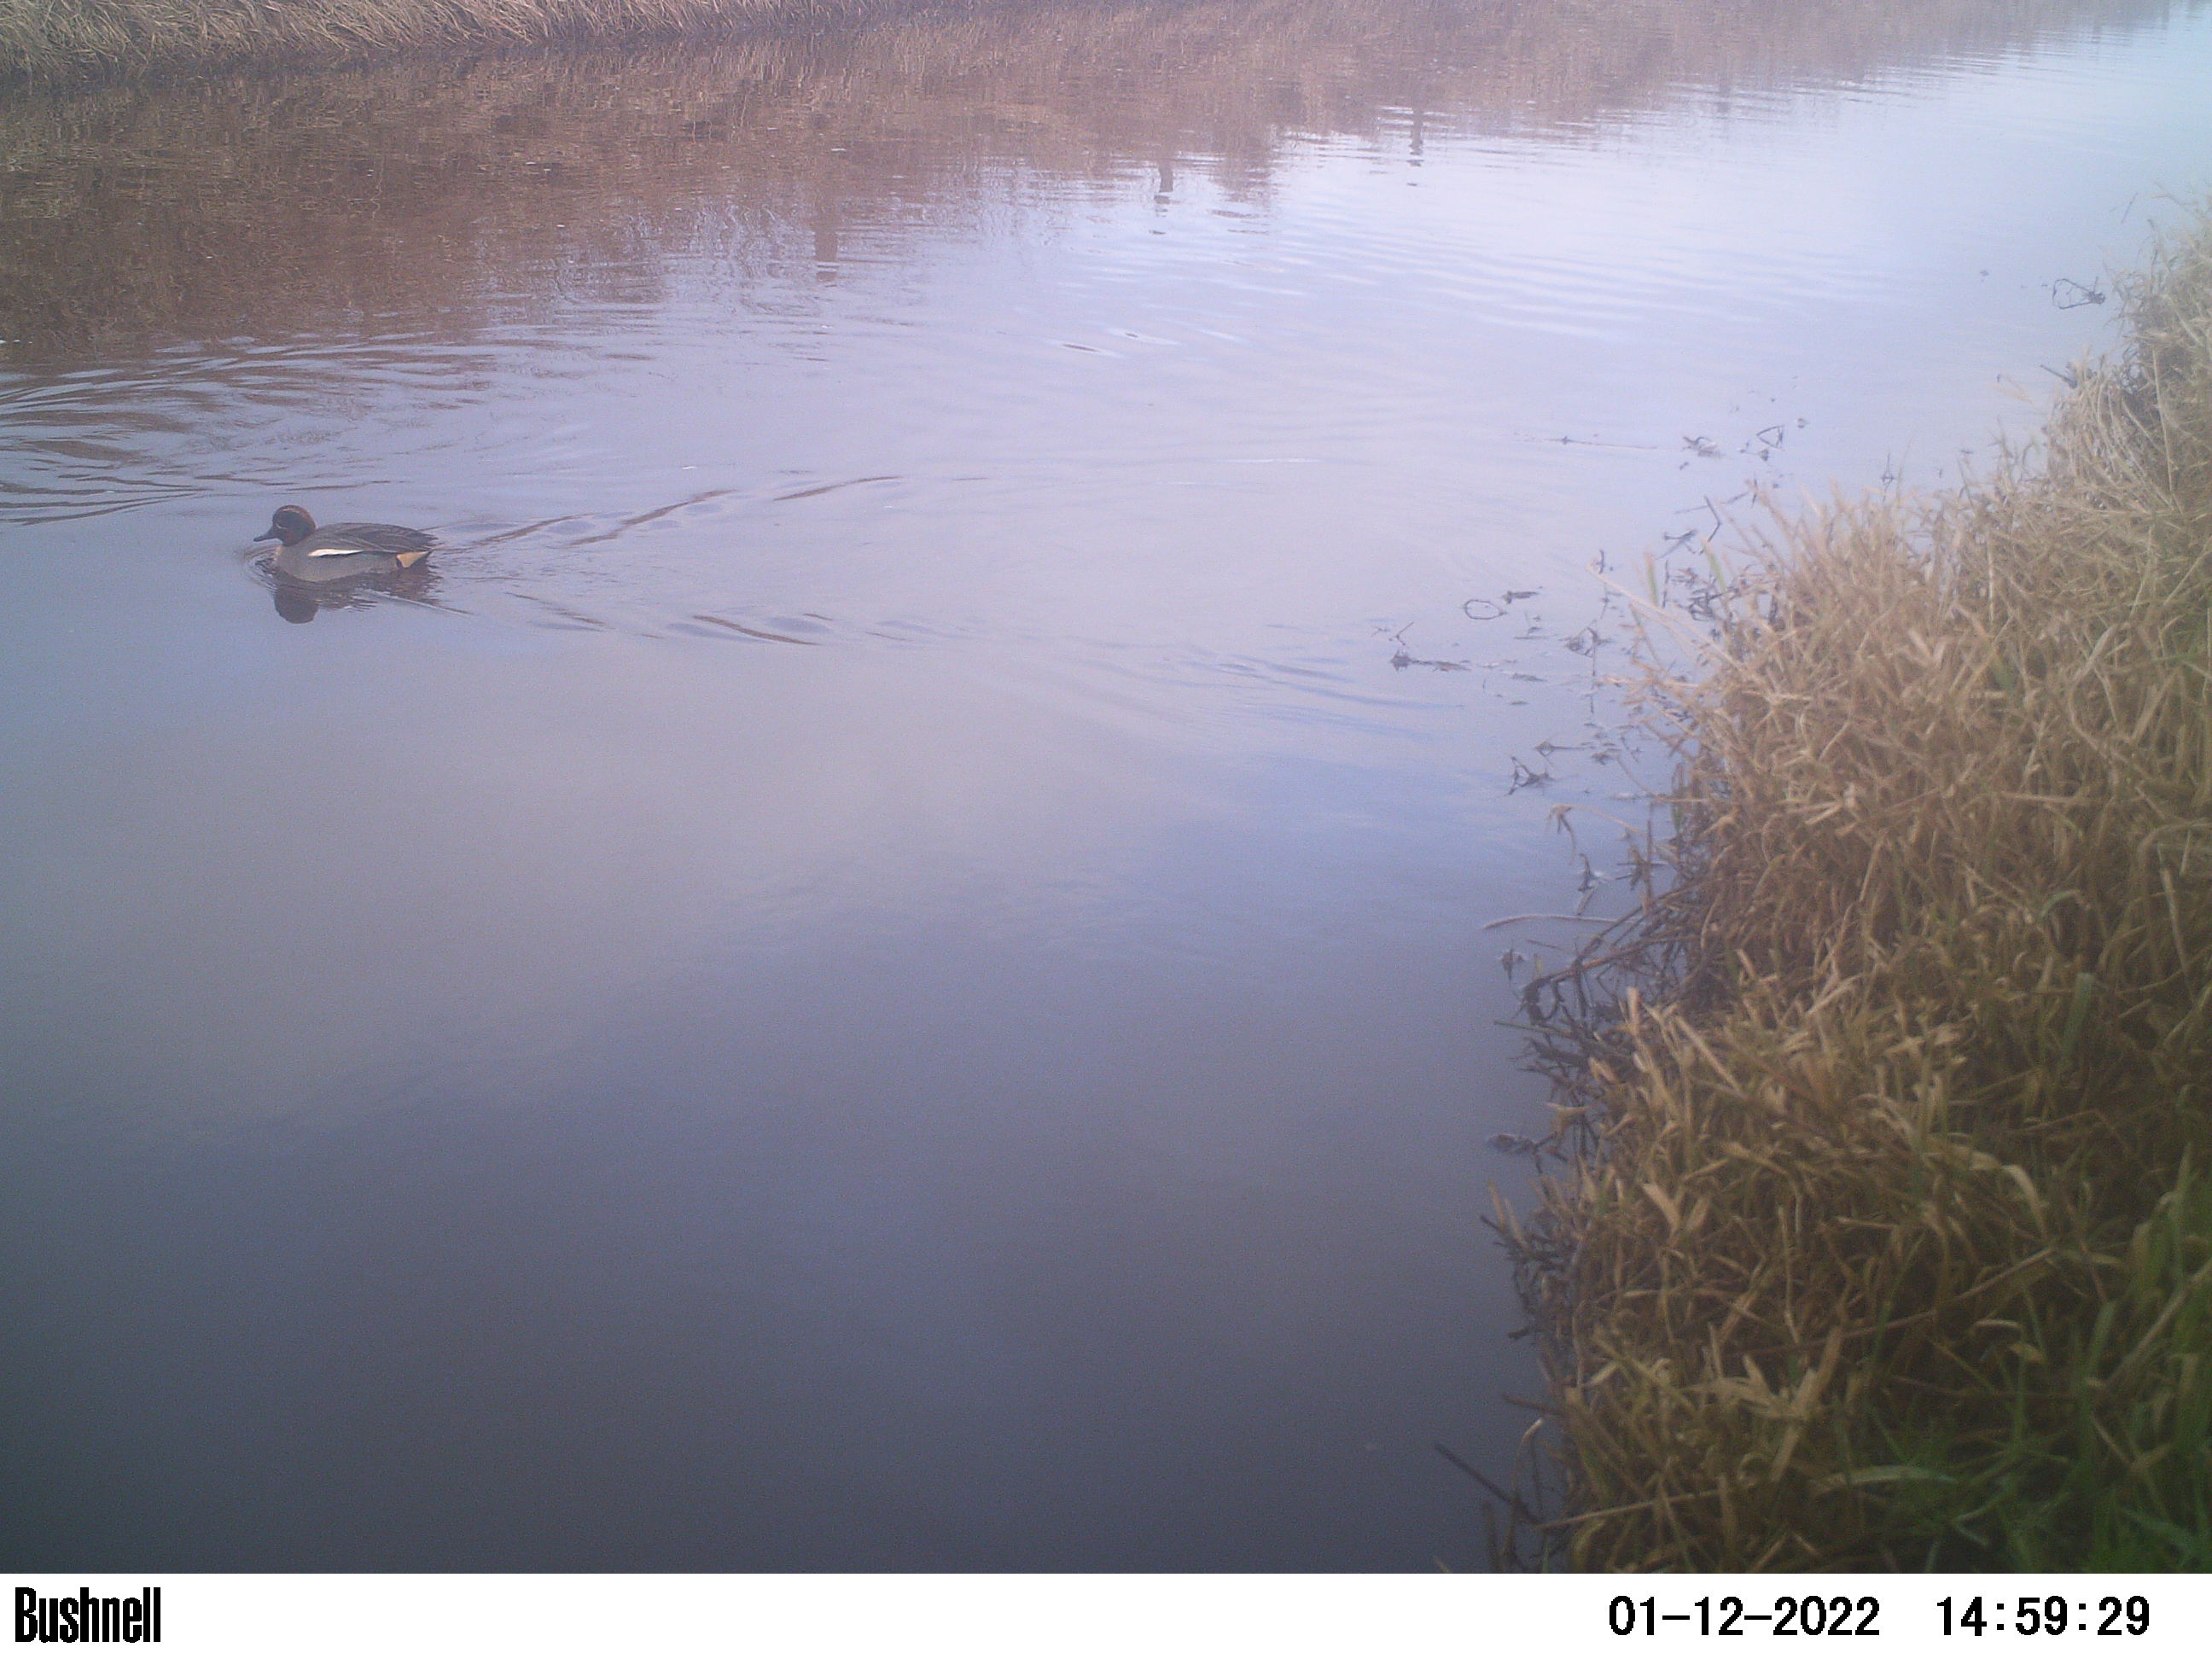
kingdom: Animalia
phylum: Chordata
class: Aves
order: Anseriformes
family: Anatidae
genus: Anas
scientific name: Anas
